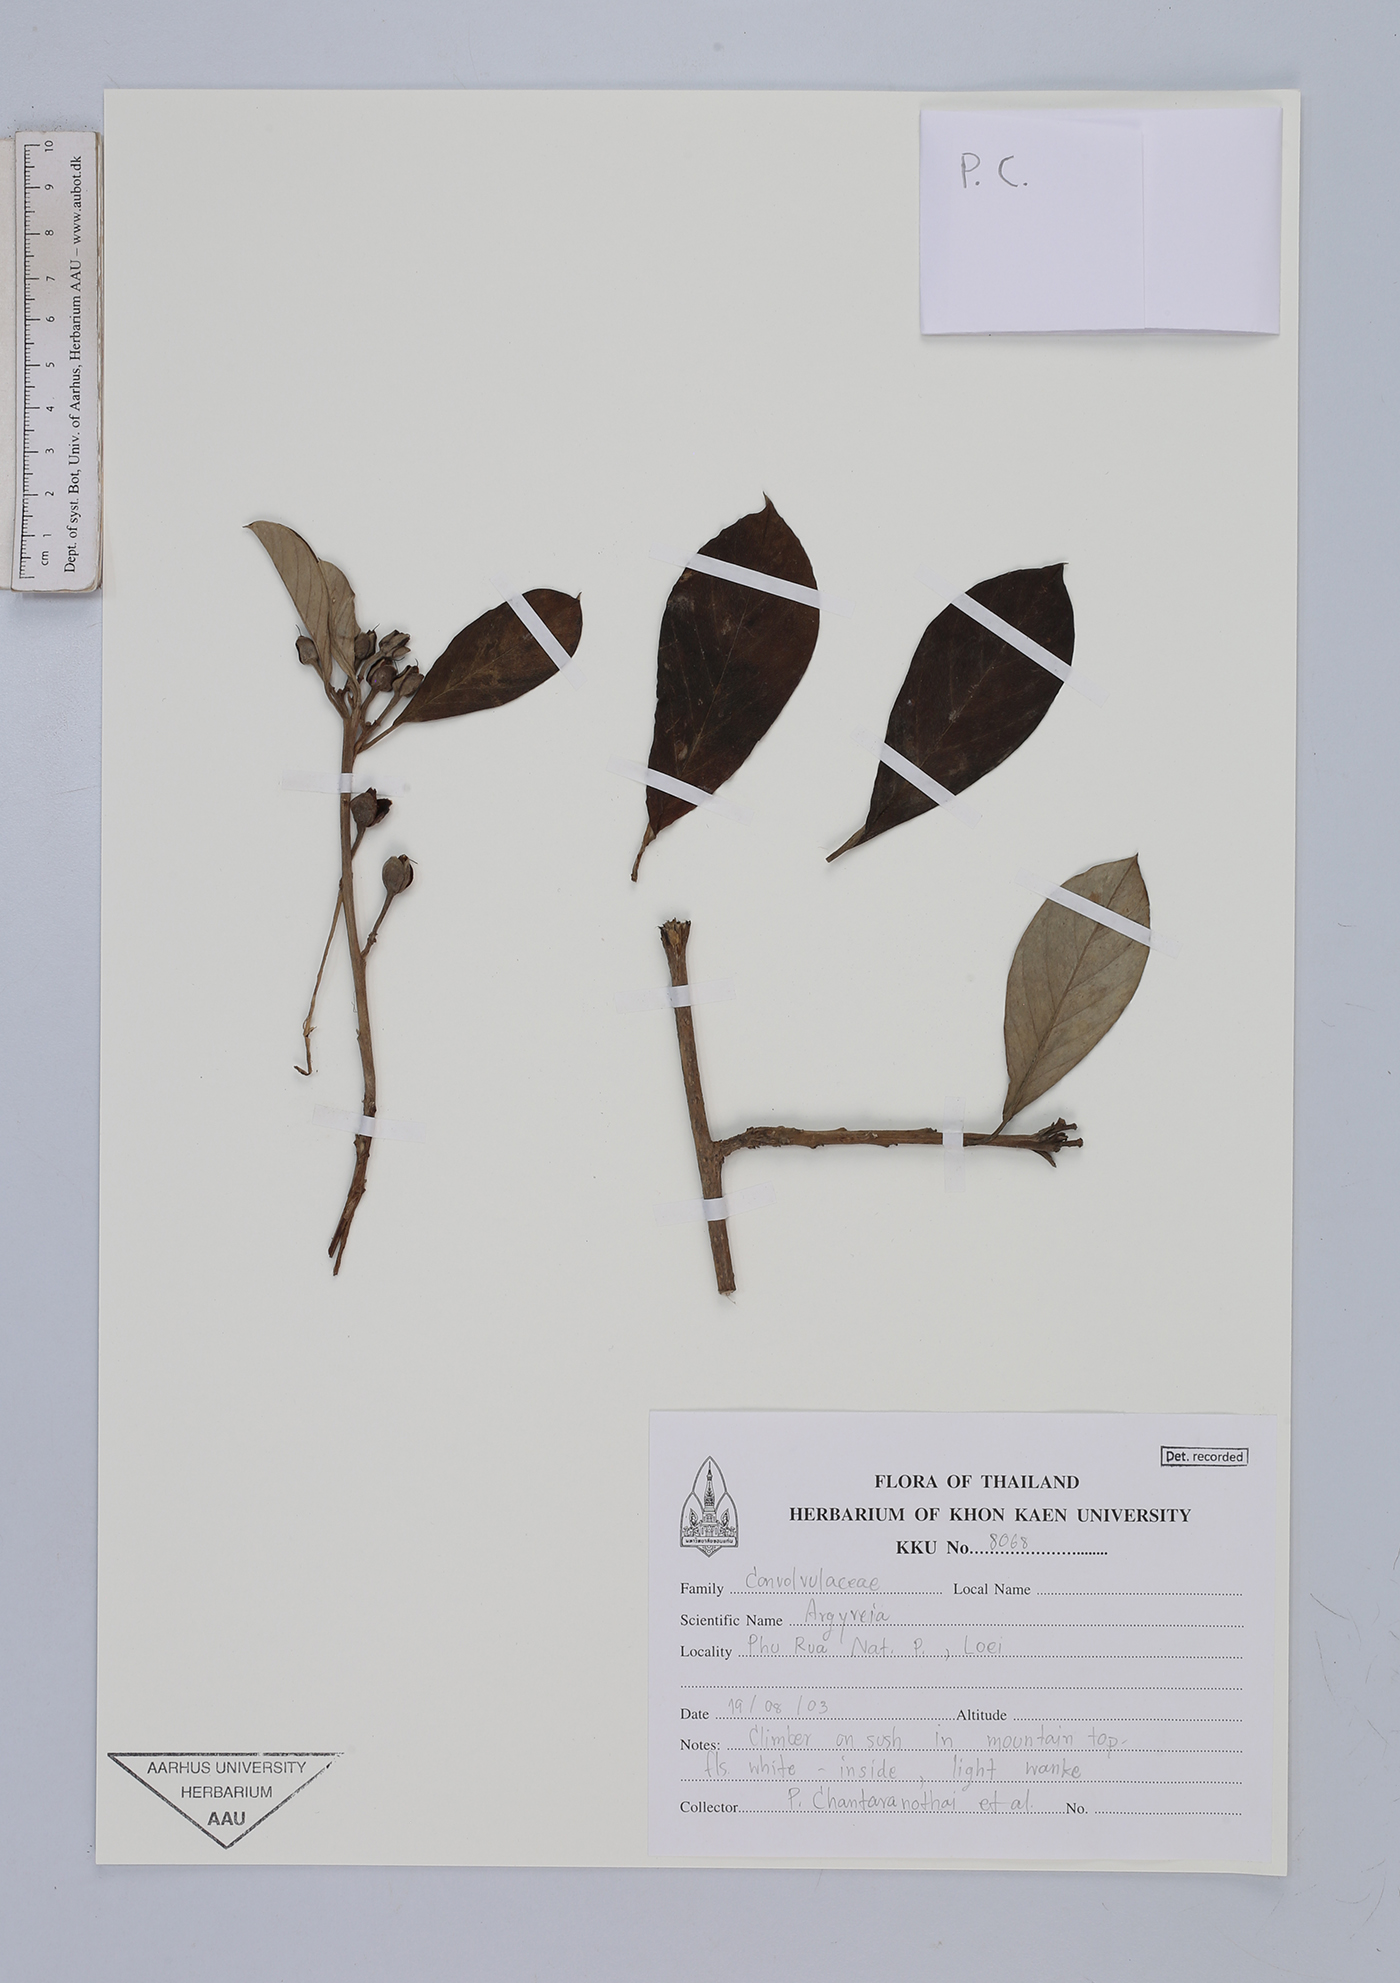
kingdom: Plantae
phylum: Tracheophyta
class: Magnoliopsida
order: Solanales
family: Convolvulaceae
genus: Argyreia
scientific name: Argyreia
